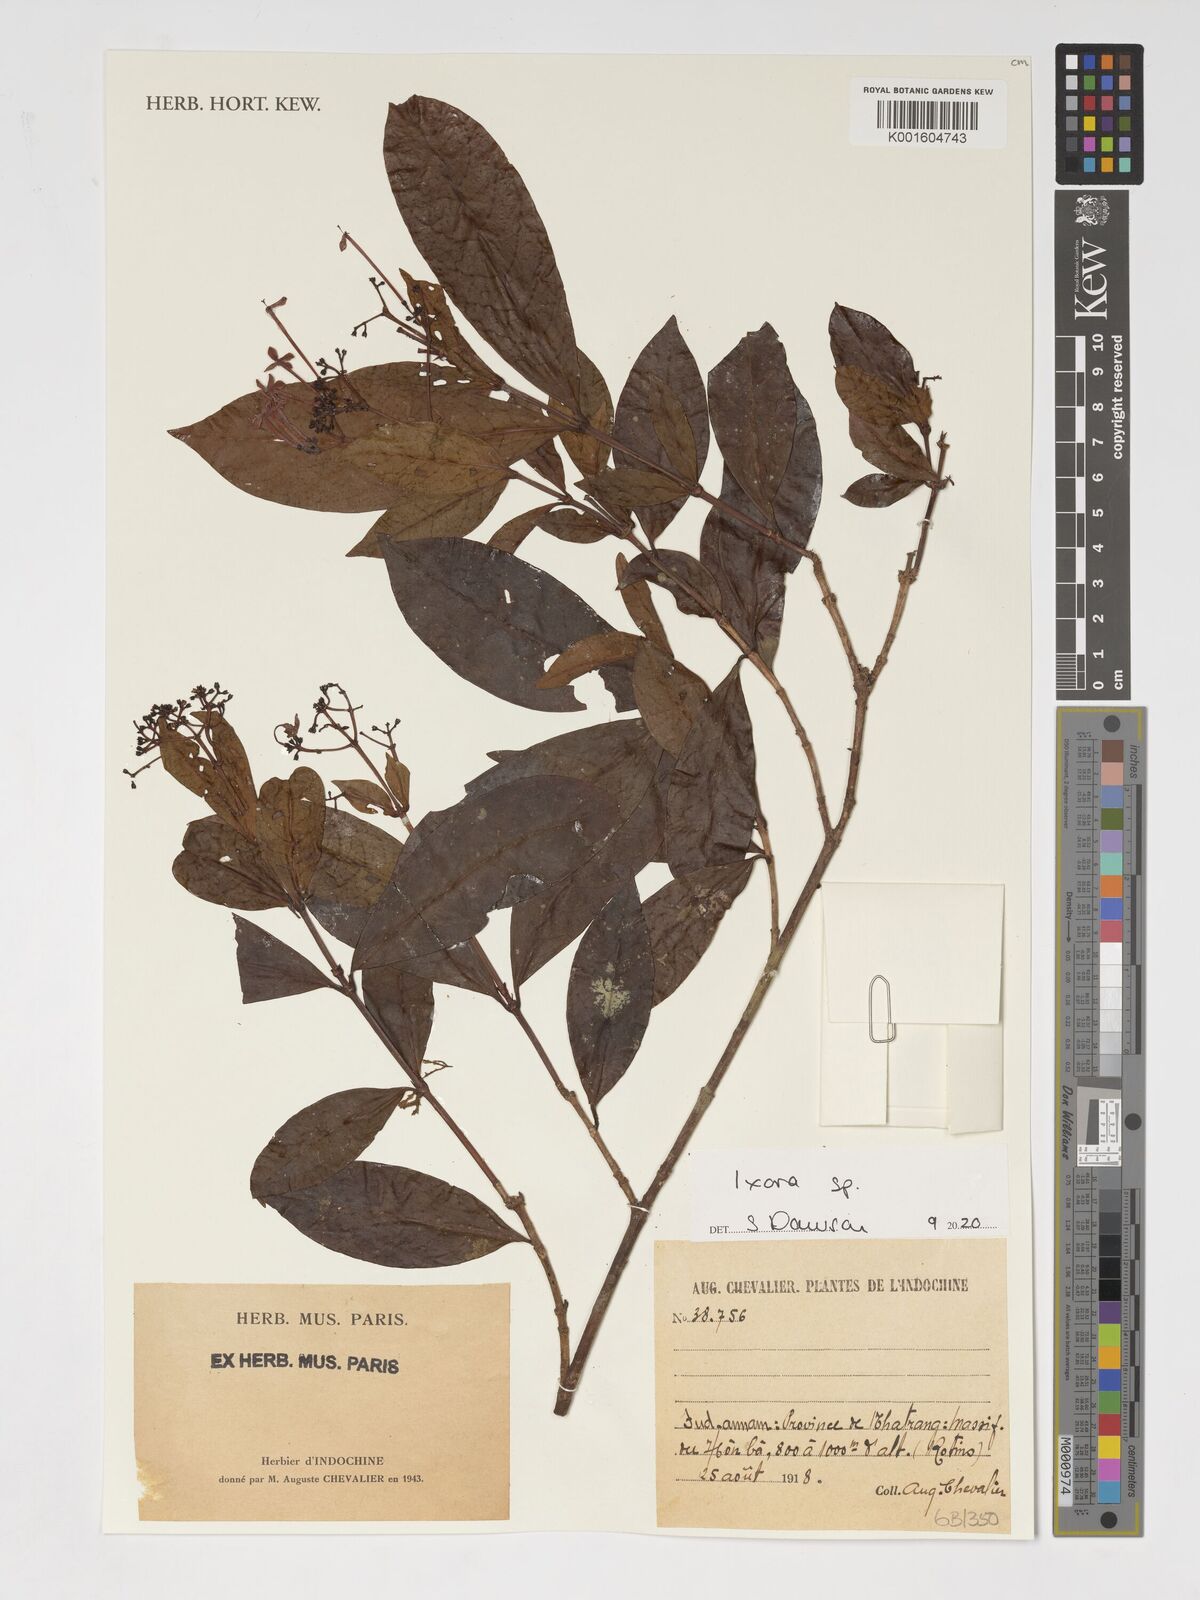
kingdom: Plantae
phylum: Tracheophyta
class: Magnoliopsida
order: Gentianales
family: Rubiaceae
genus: Ixora
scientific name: Ixora
